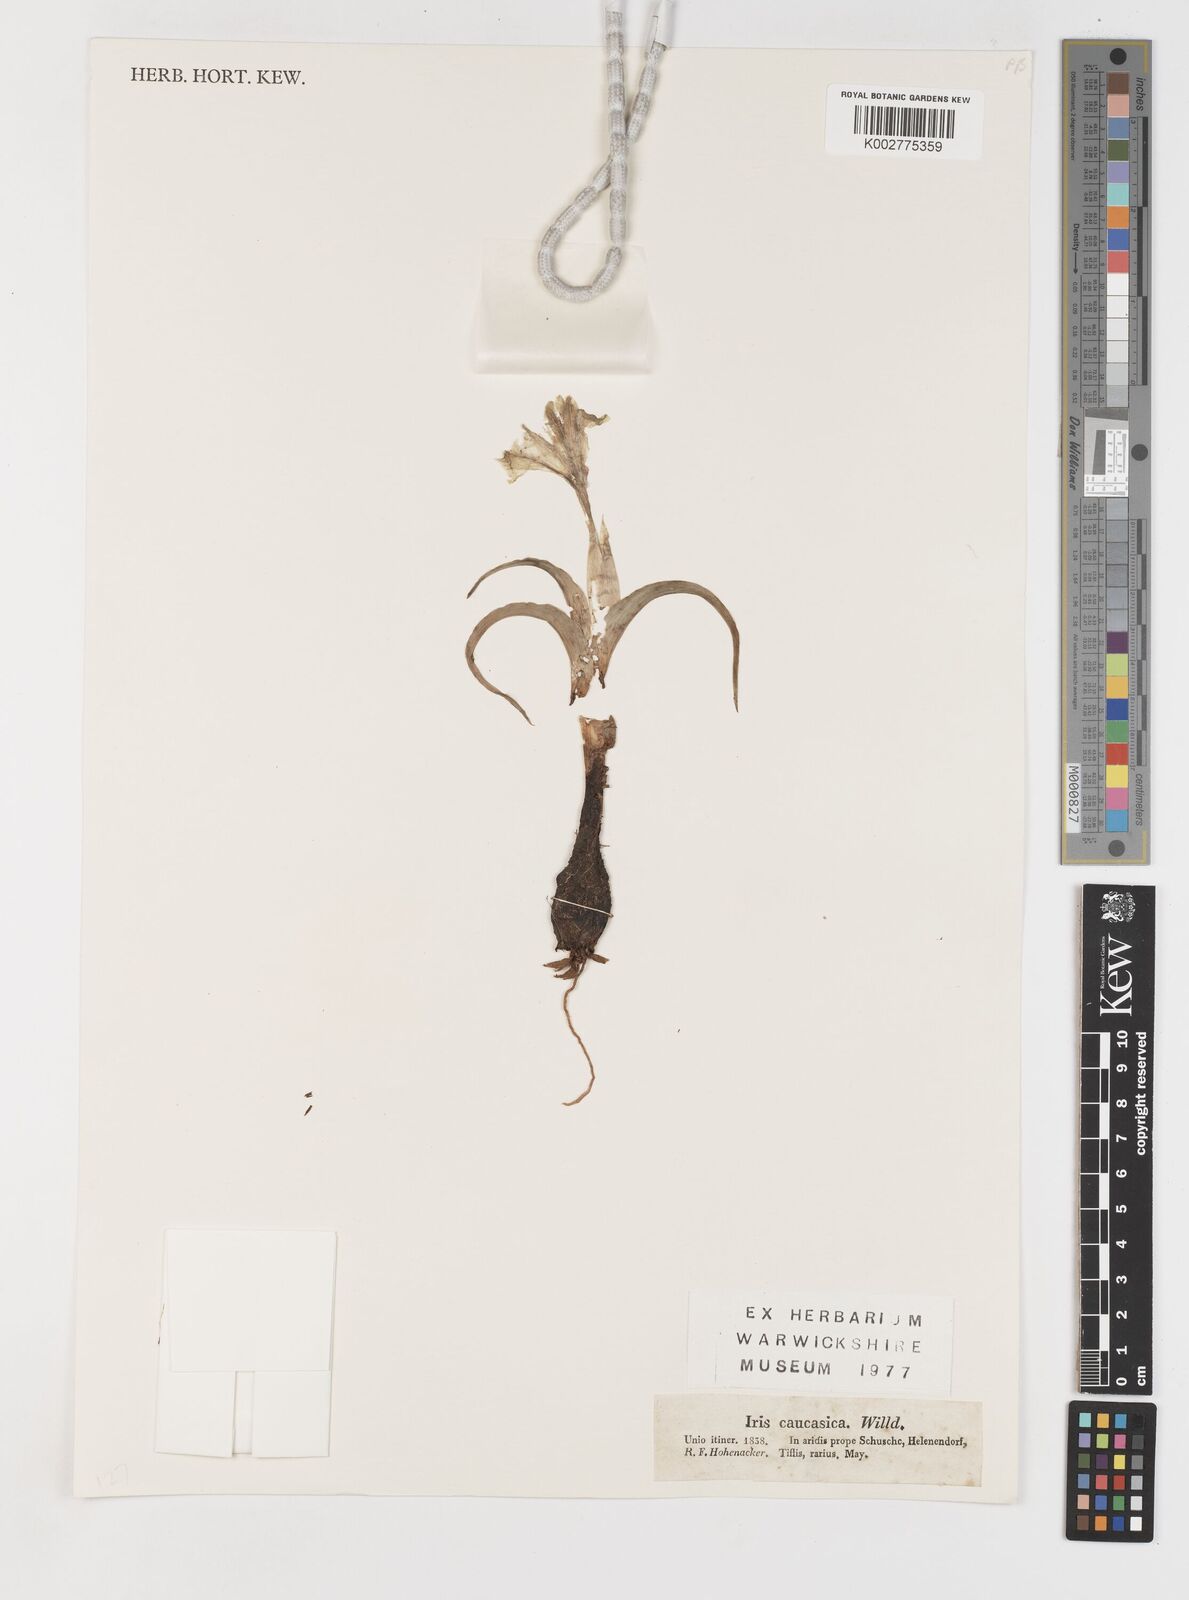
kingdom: Plantae
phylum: Tracheophyta
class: Liliopsida
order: Asparagales
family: Iridaceae
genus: Iris
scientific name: Iris caucasica
